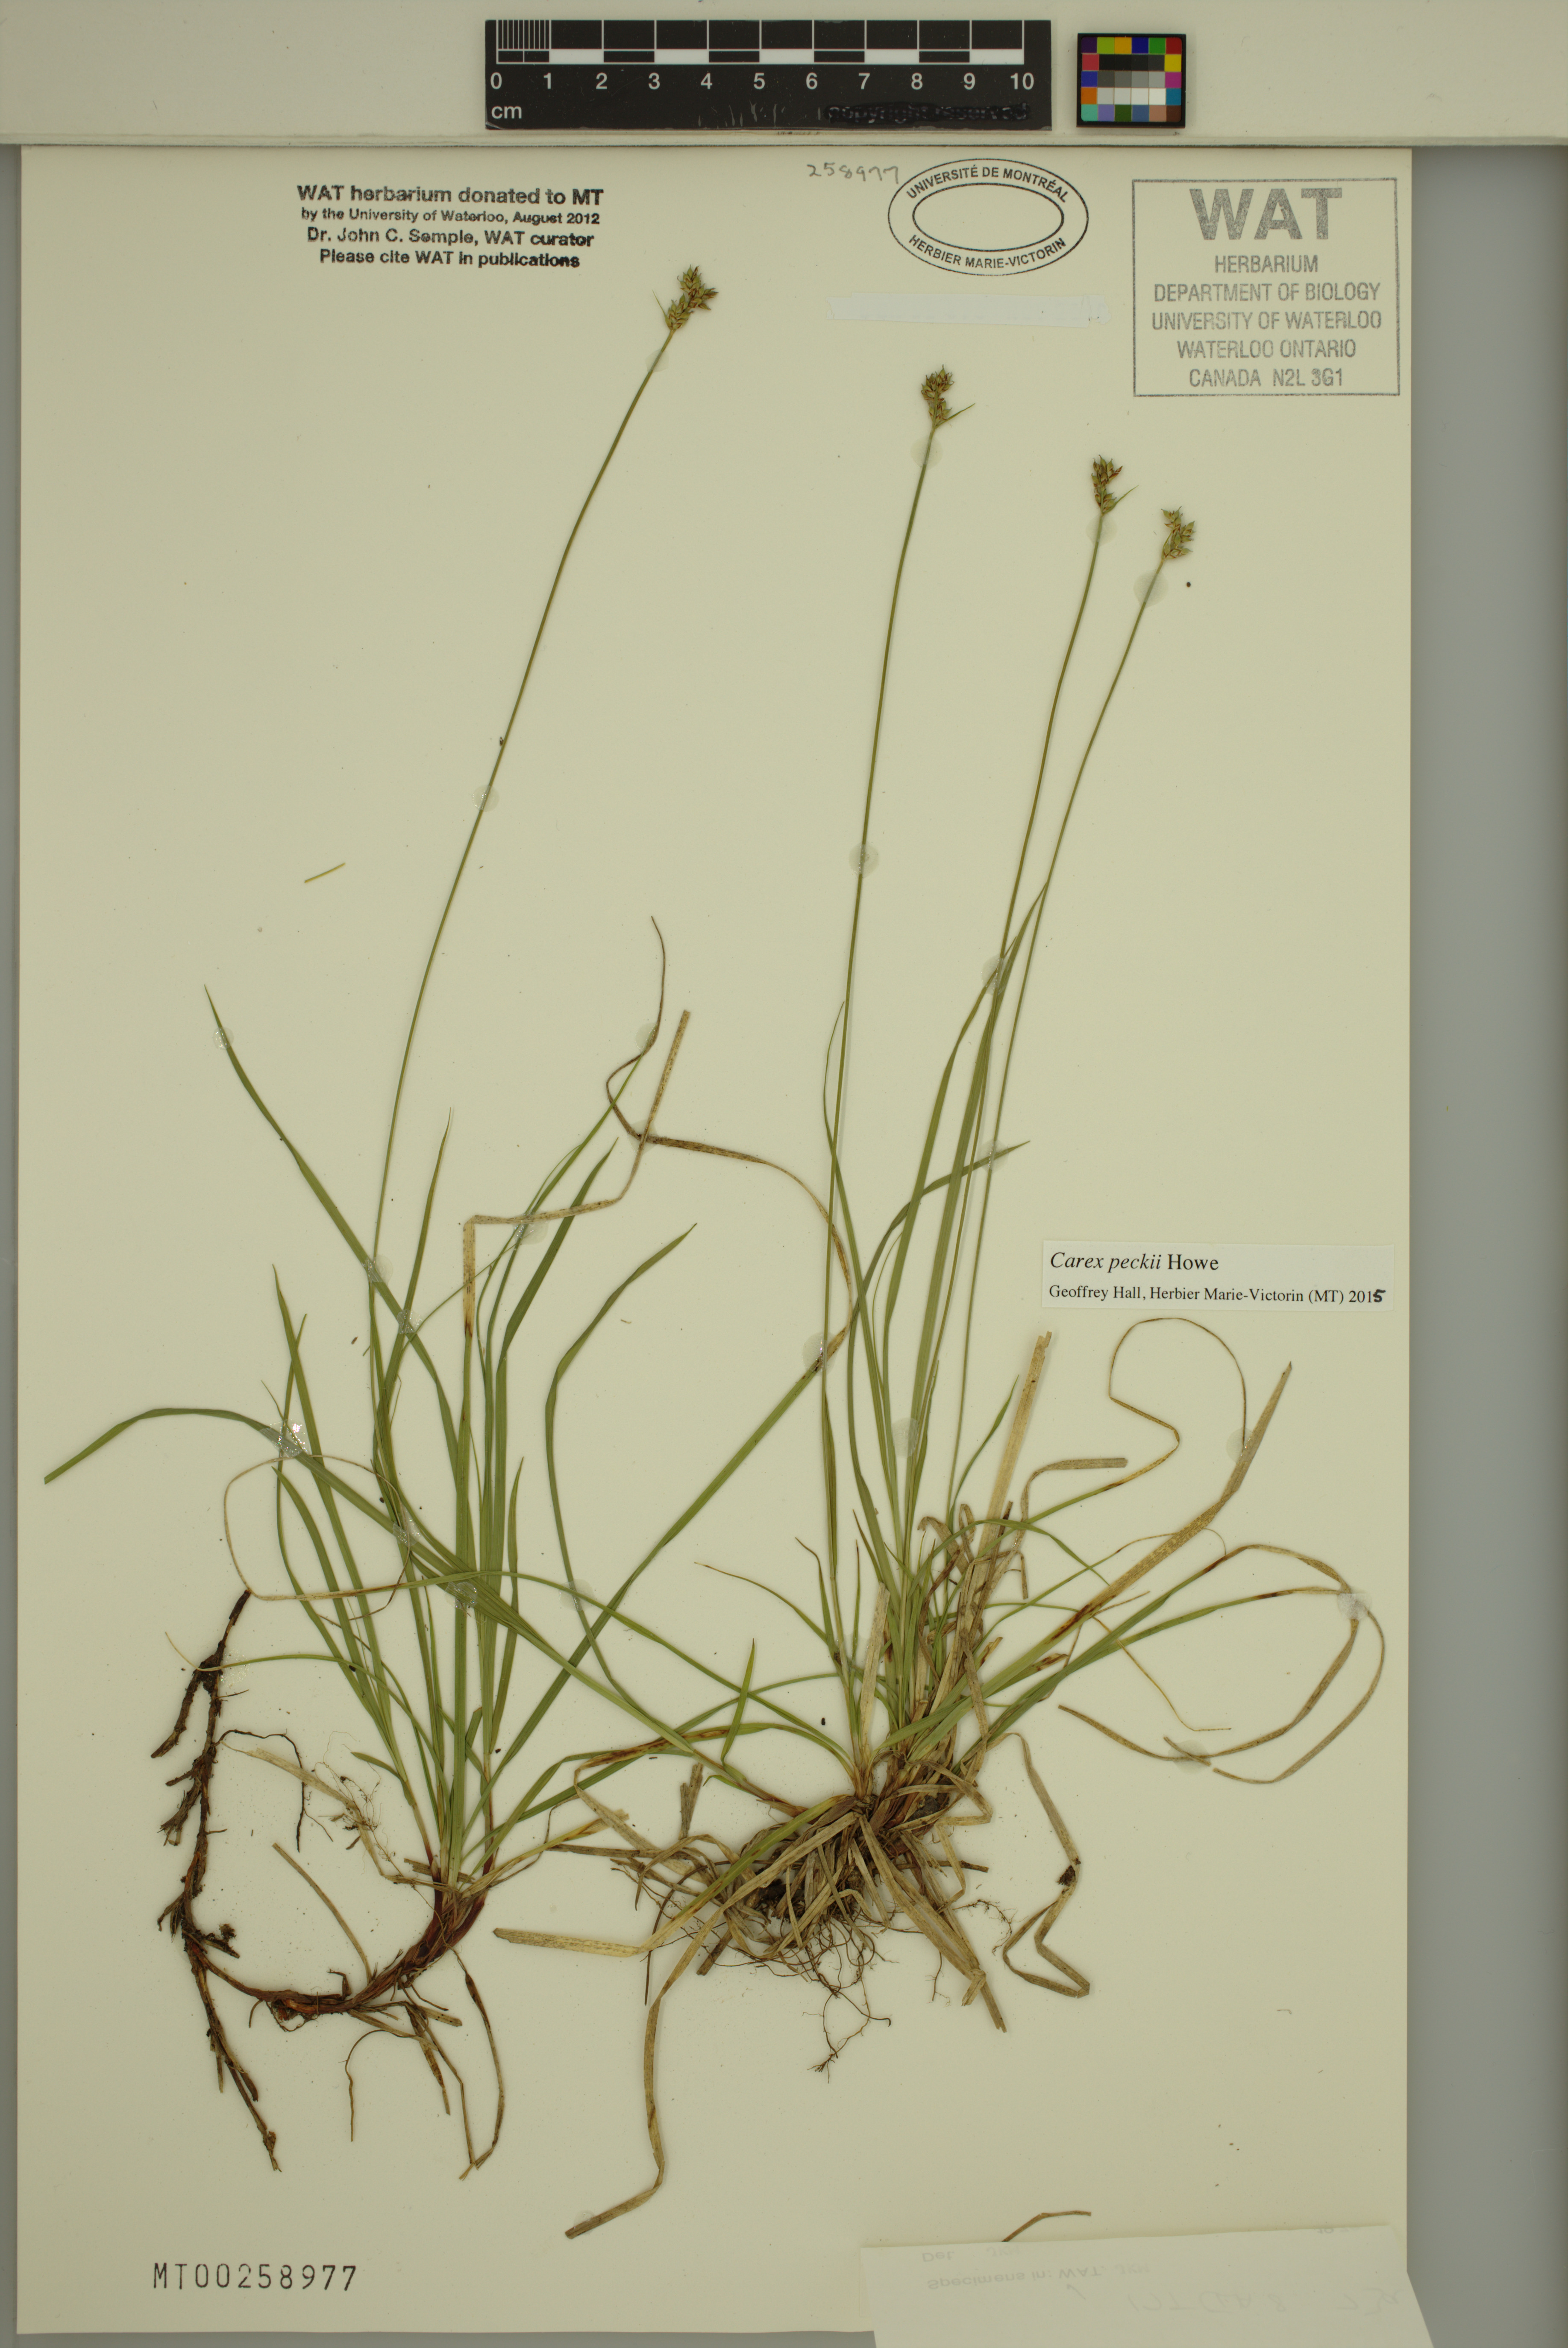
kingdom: Plantae
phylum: Tracheophyta
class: Liliopsida
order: Poales
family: Cyperaceae
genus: Carex
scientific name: Carex peckii
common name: Peck's oak sedge
